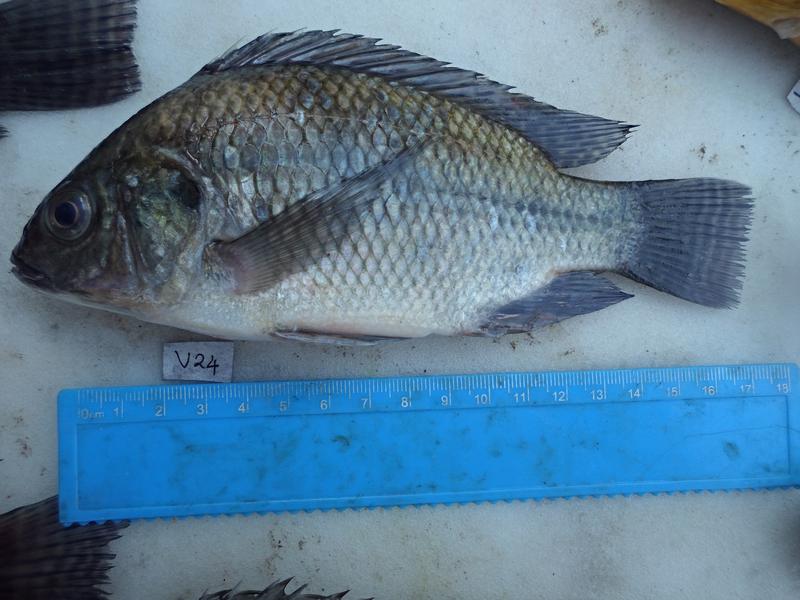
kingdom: Animalia
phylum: Chordata
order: Perciformes
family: Cichlidae
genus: Oreochromis
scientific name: Oreochromis niloticus
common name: Nile tilapia
